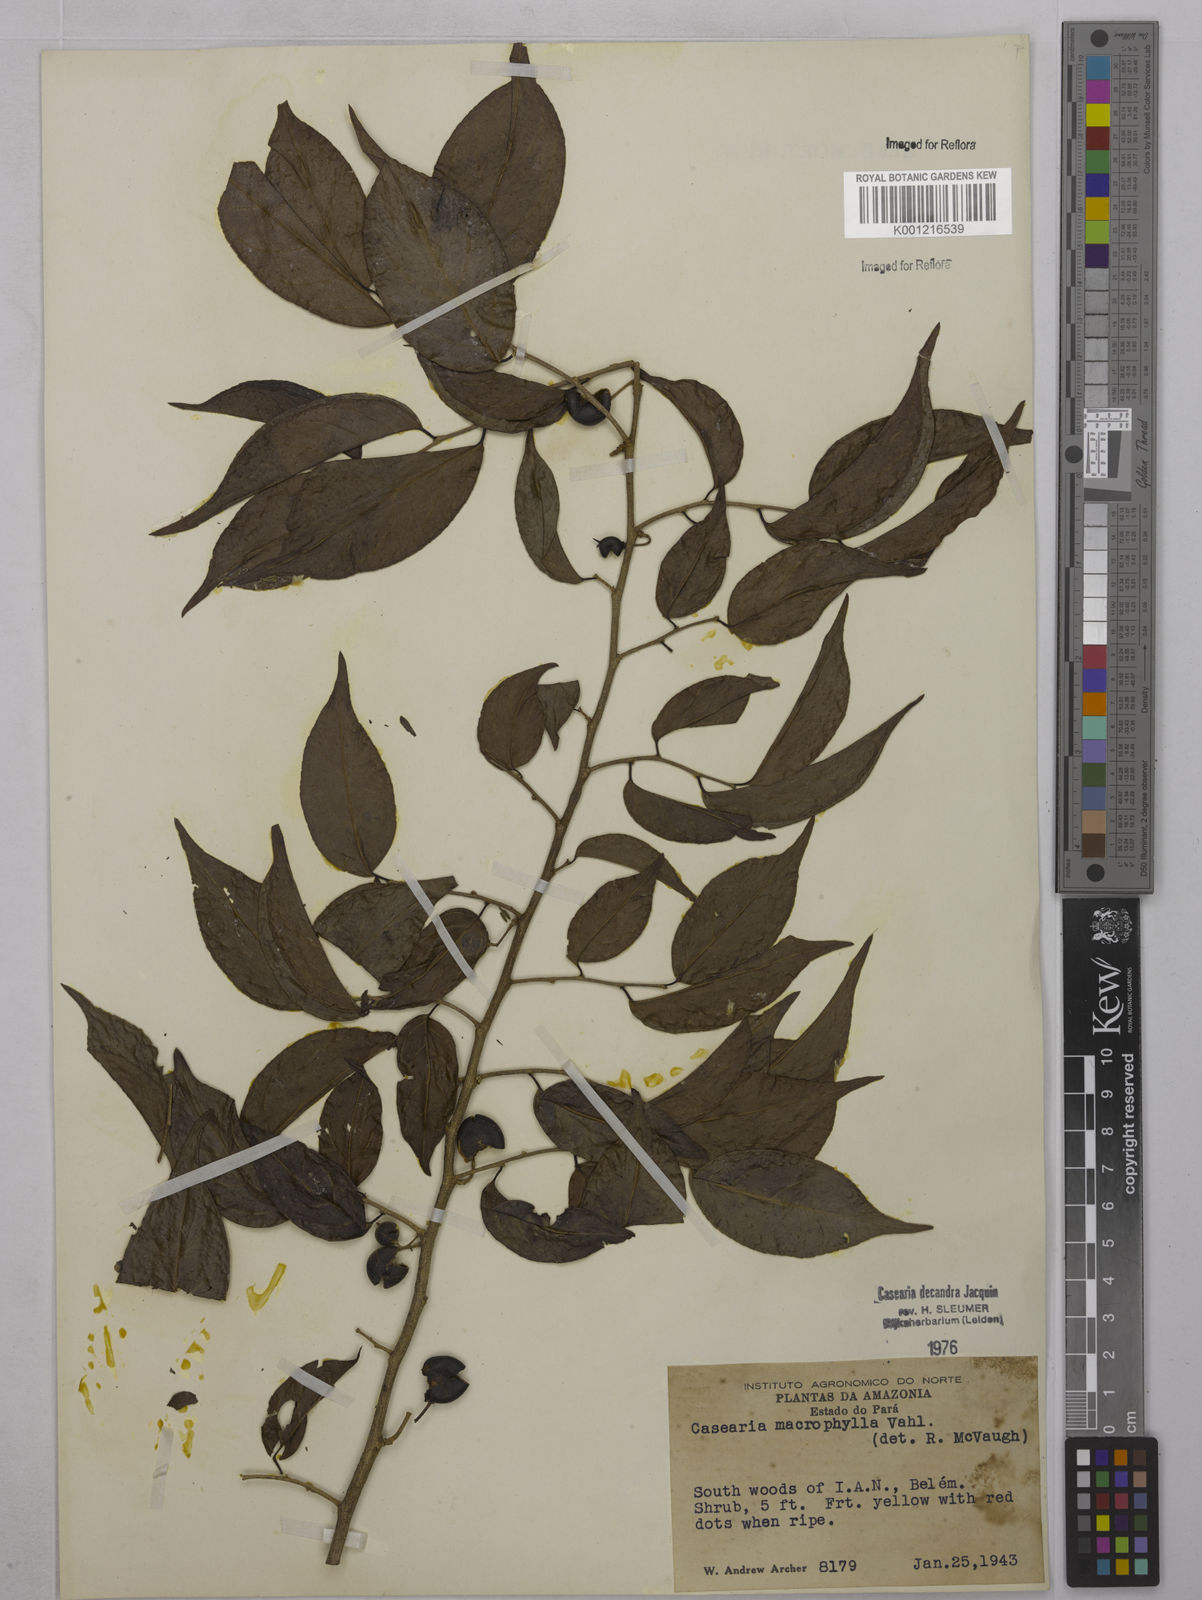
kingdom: Plantae
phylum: Tracheophyta
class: Magnoliopsida
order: Malpighiales
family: Salicaceae
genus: Casearia
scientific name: Casearia pitumba
